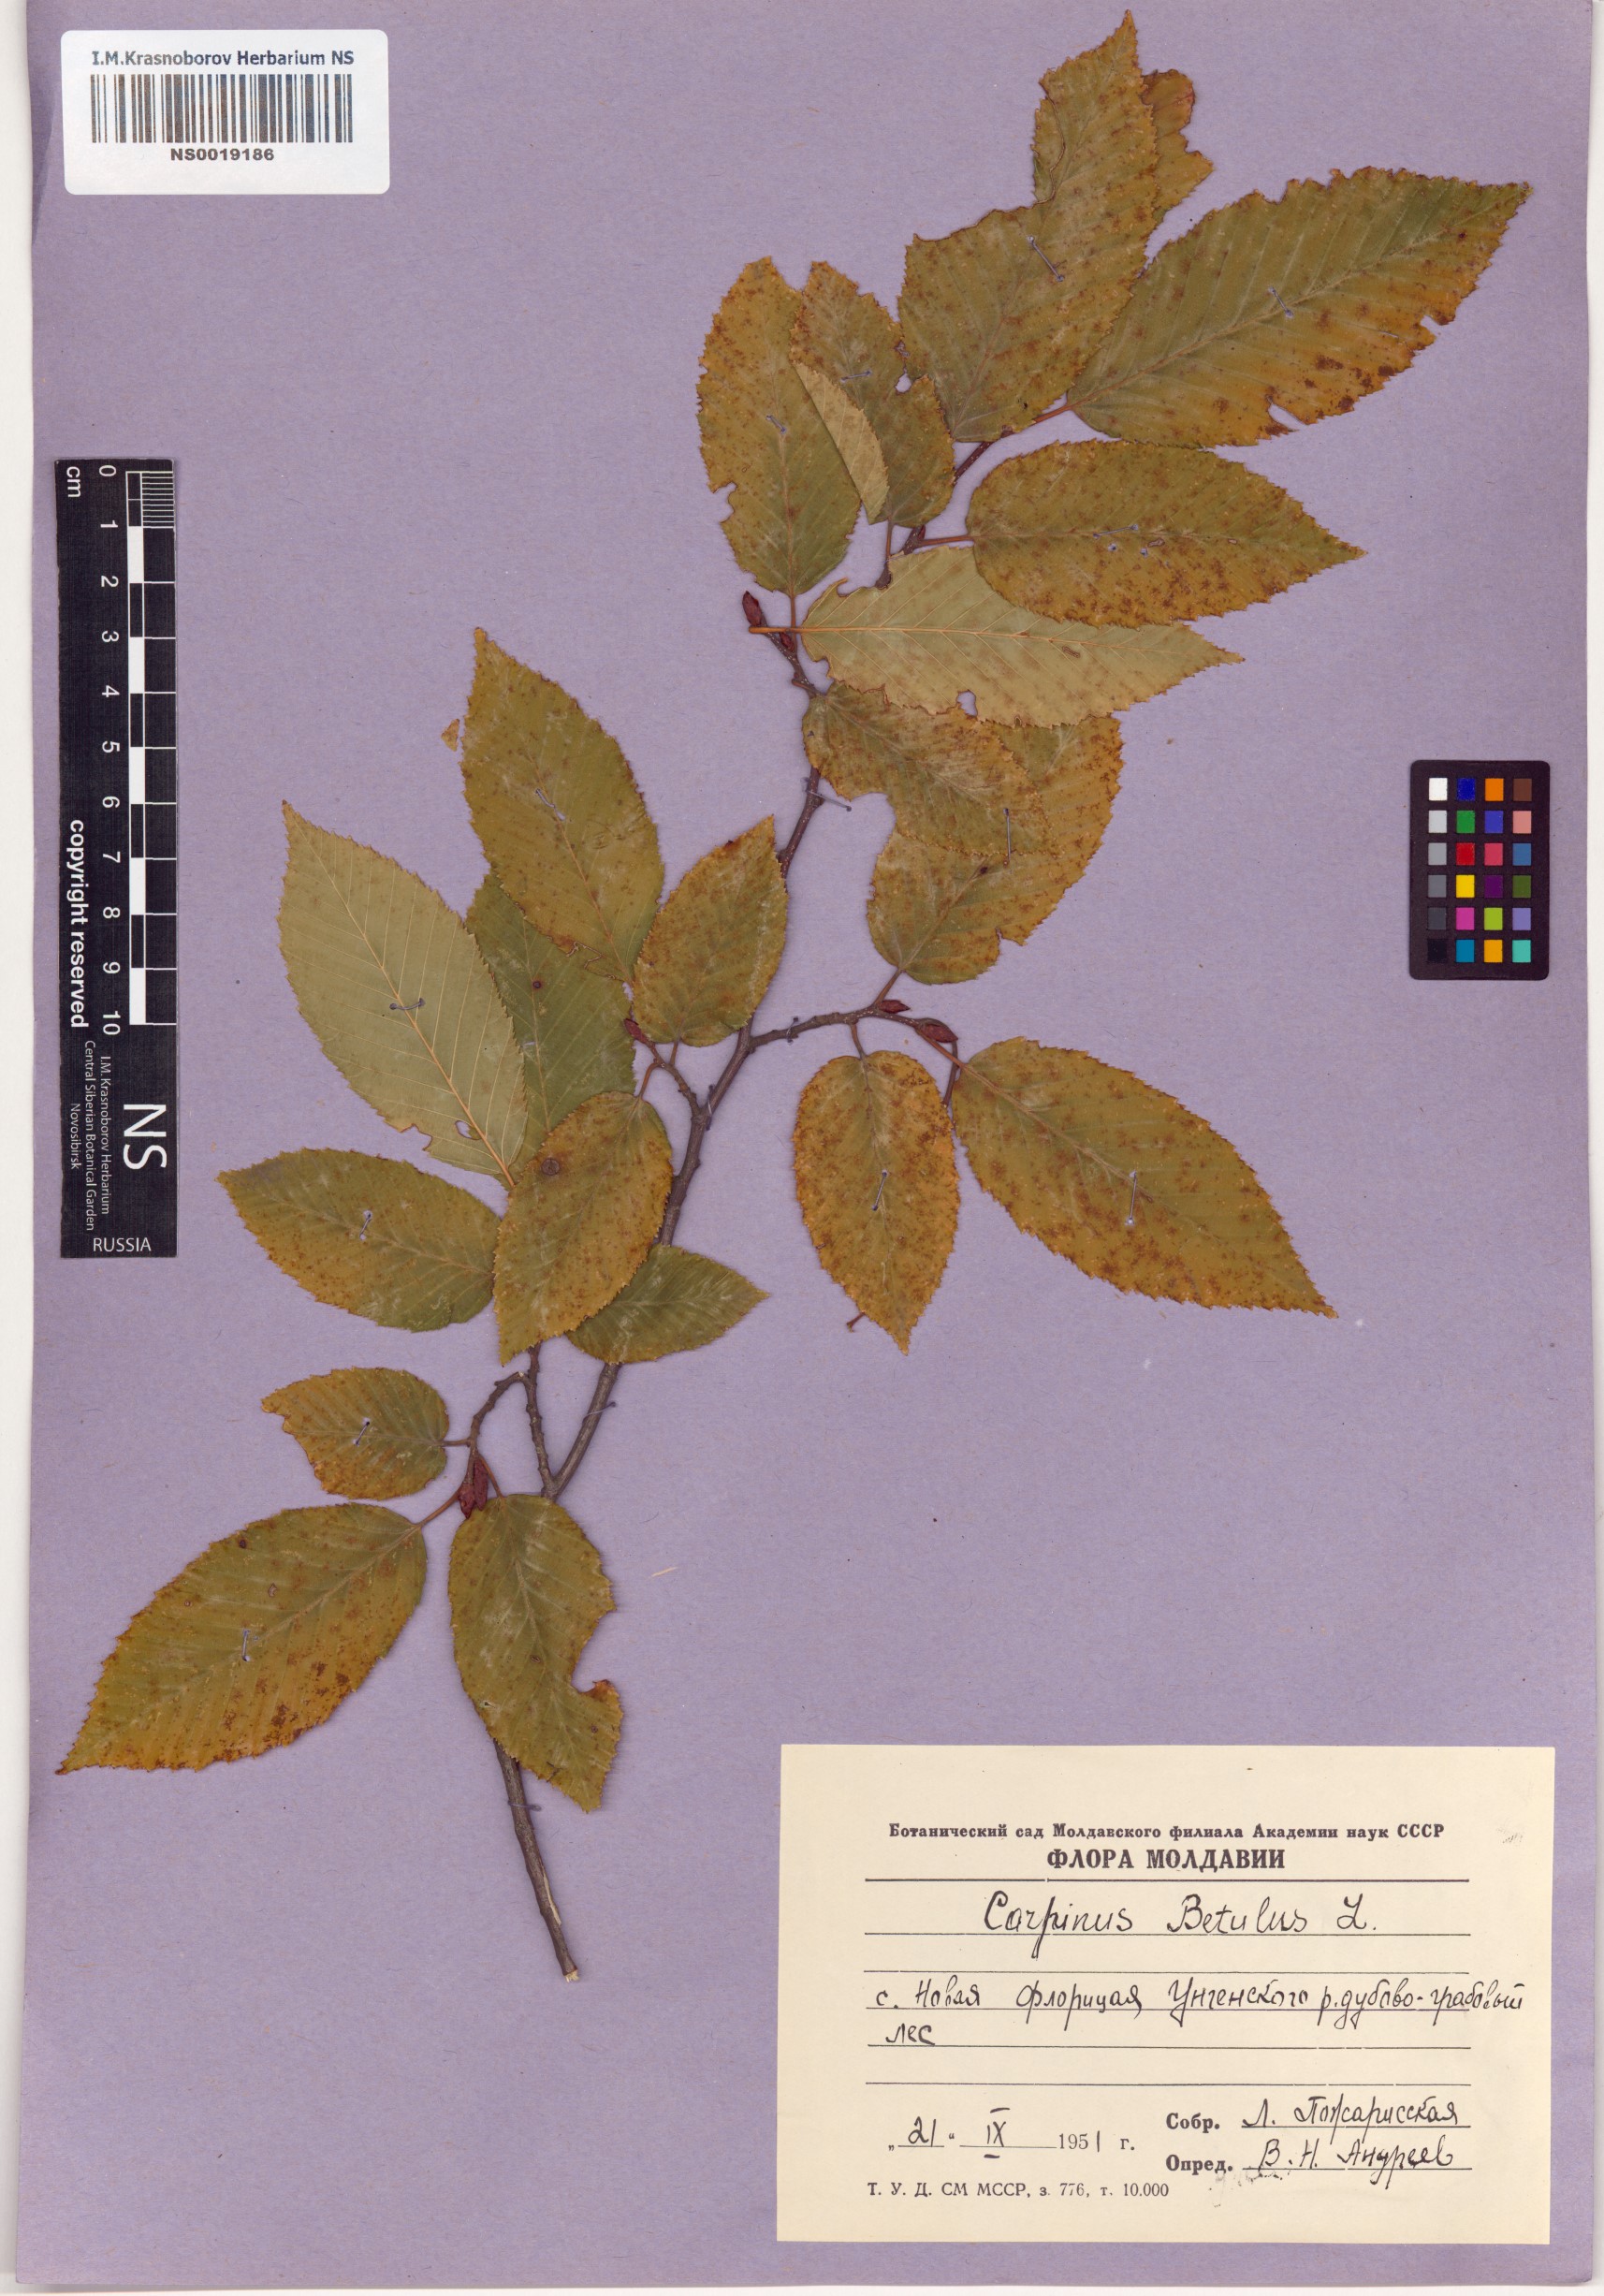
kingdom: Plantae
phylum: Tracheophyta
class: Magnoliopsida
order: Fagales
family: Betulaceae
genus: Carpinus
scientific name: Carpinus betulus
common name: Hornbeam
